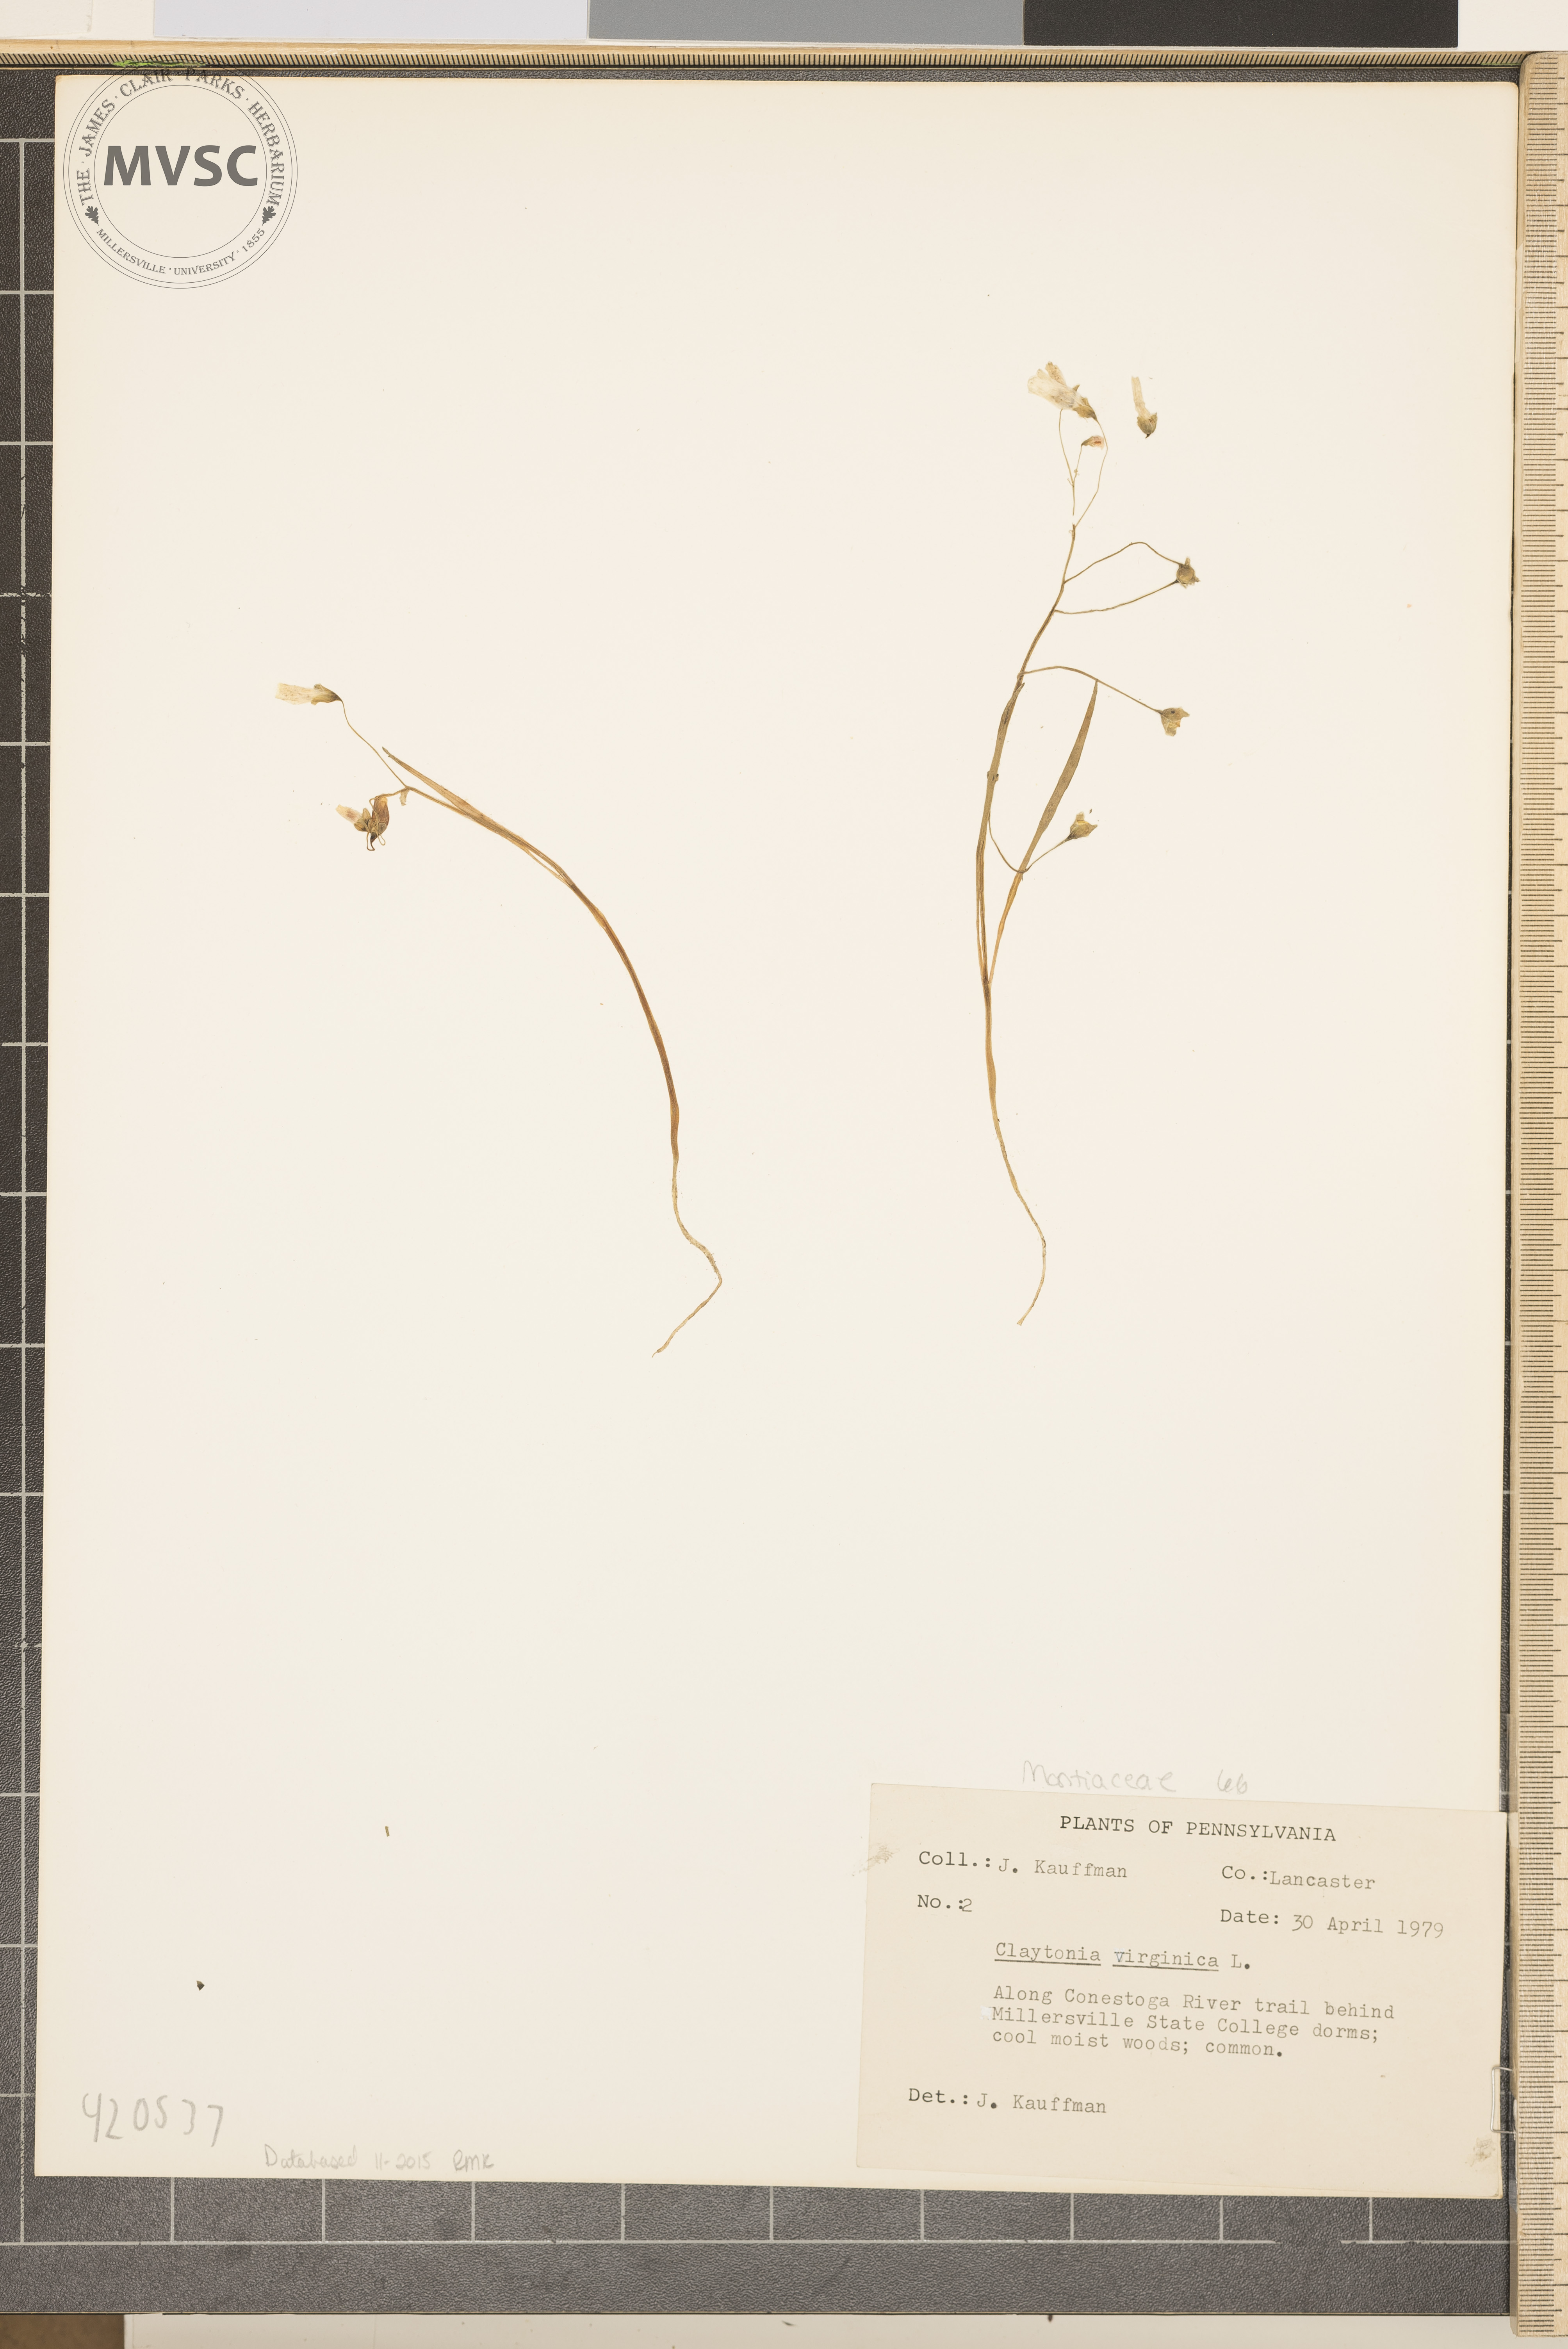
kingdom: Plantae
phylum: Tracheophyta
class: Magnoliopsida
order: Caryophyllales
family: Montiaceae
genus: Claytonia
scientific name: Claytonia virginica
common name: Spring Beauty
